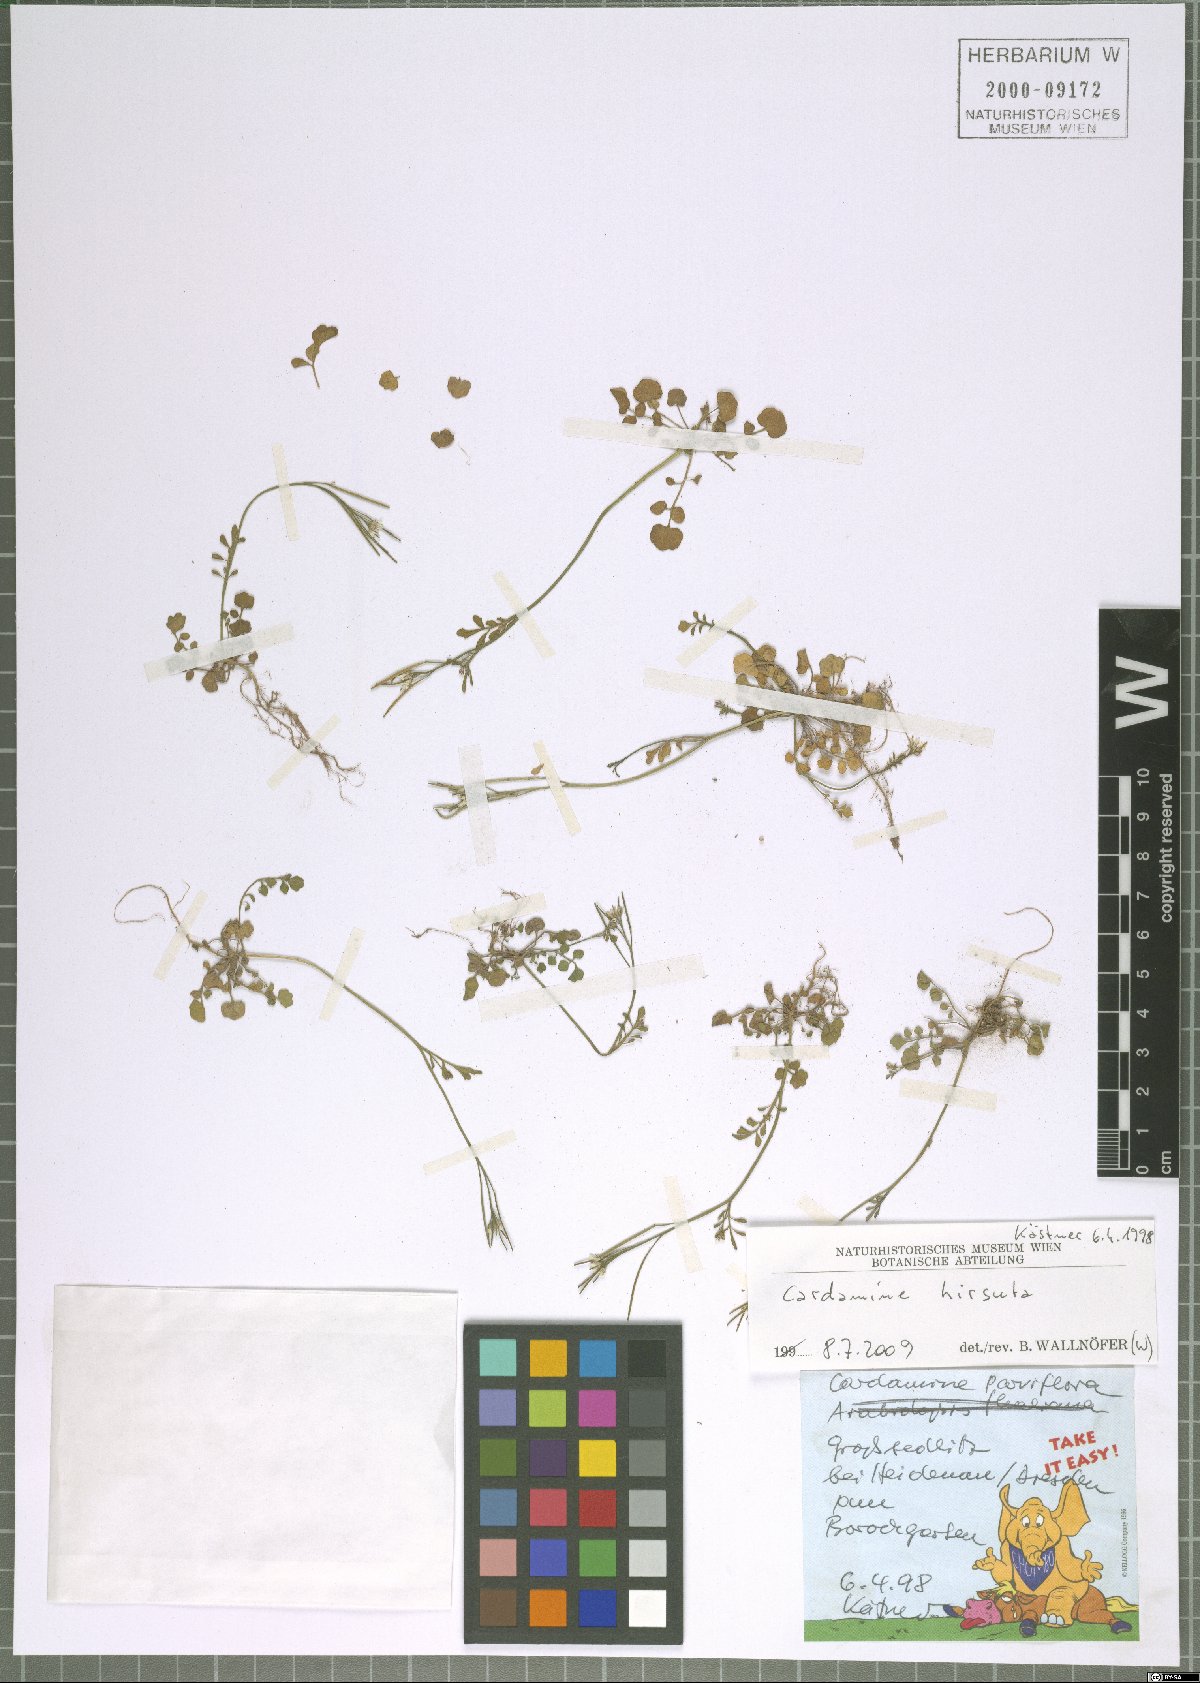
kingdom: Plantae
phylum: Tracheophyta
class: Magnoliopsida
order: Brassicales
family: Brassicaceae
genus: Cardamine
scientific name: Cardamine hirsuta
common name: Hairy bittercress
